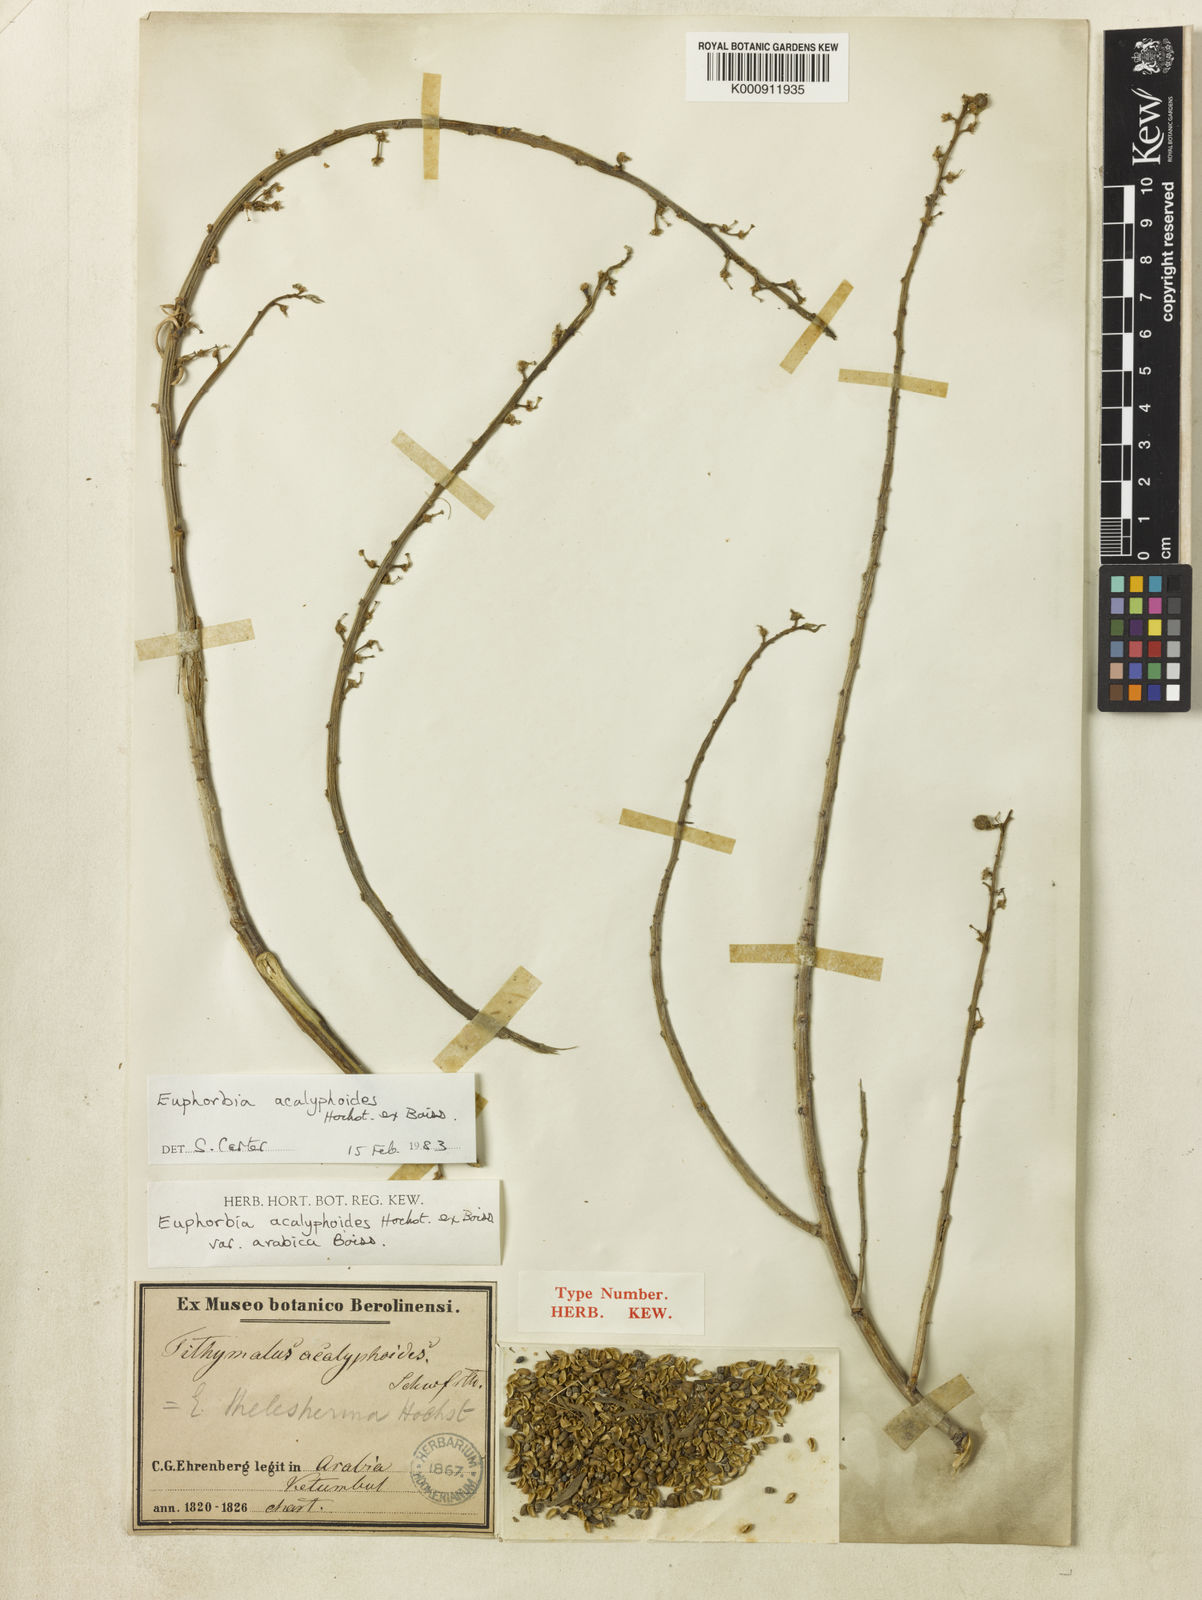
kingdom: Plantae
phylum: Tracheophyta
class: Magnoliopsida
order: Malpighiales
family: Euphorbiaceae
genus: Euphorbia
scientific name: Euphorbia acalyphoides
